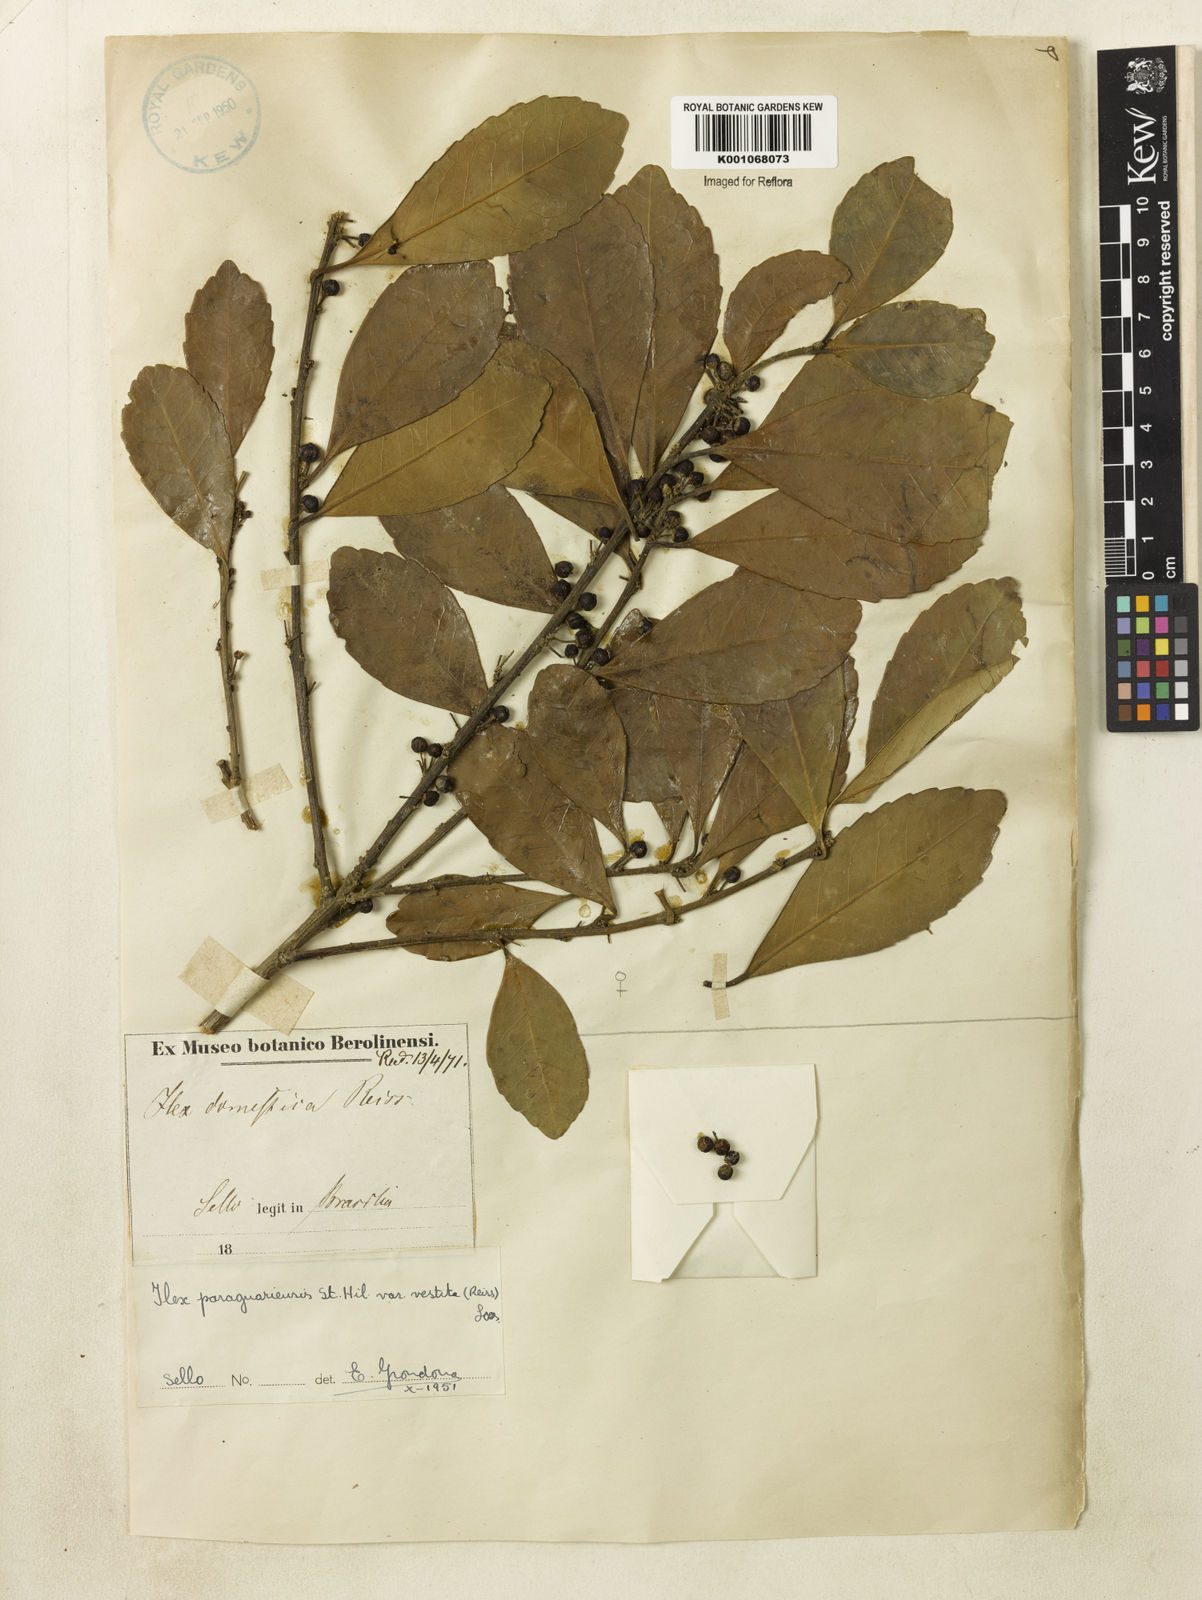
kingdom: Plantae
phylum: Tracheophyta
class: Magnoliopsida
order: Aquifoliales
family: Aquifoliaceae
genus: Ilex
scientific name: Ilex paraguariensis
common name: Paraguay tea
